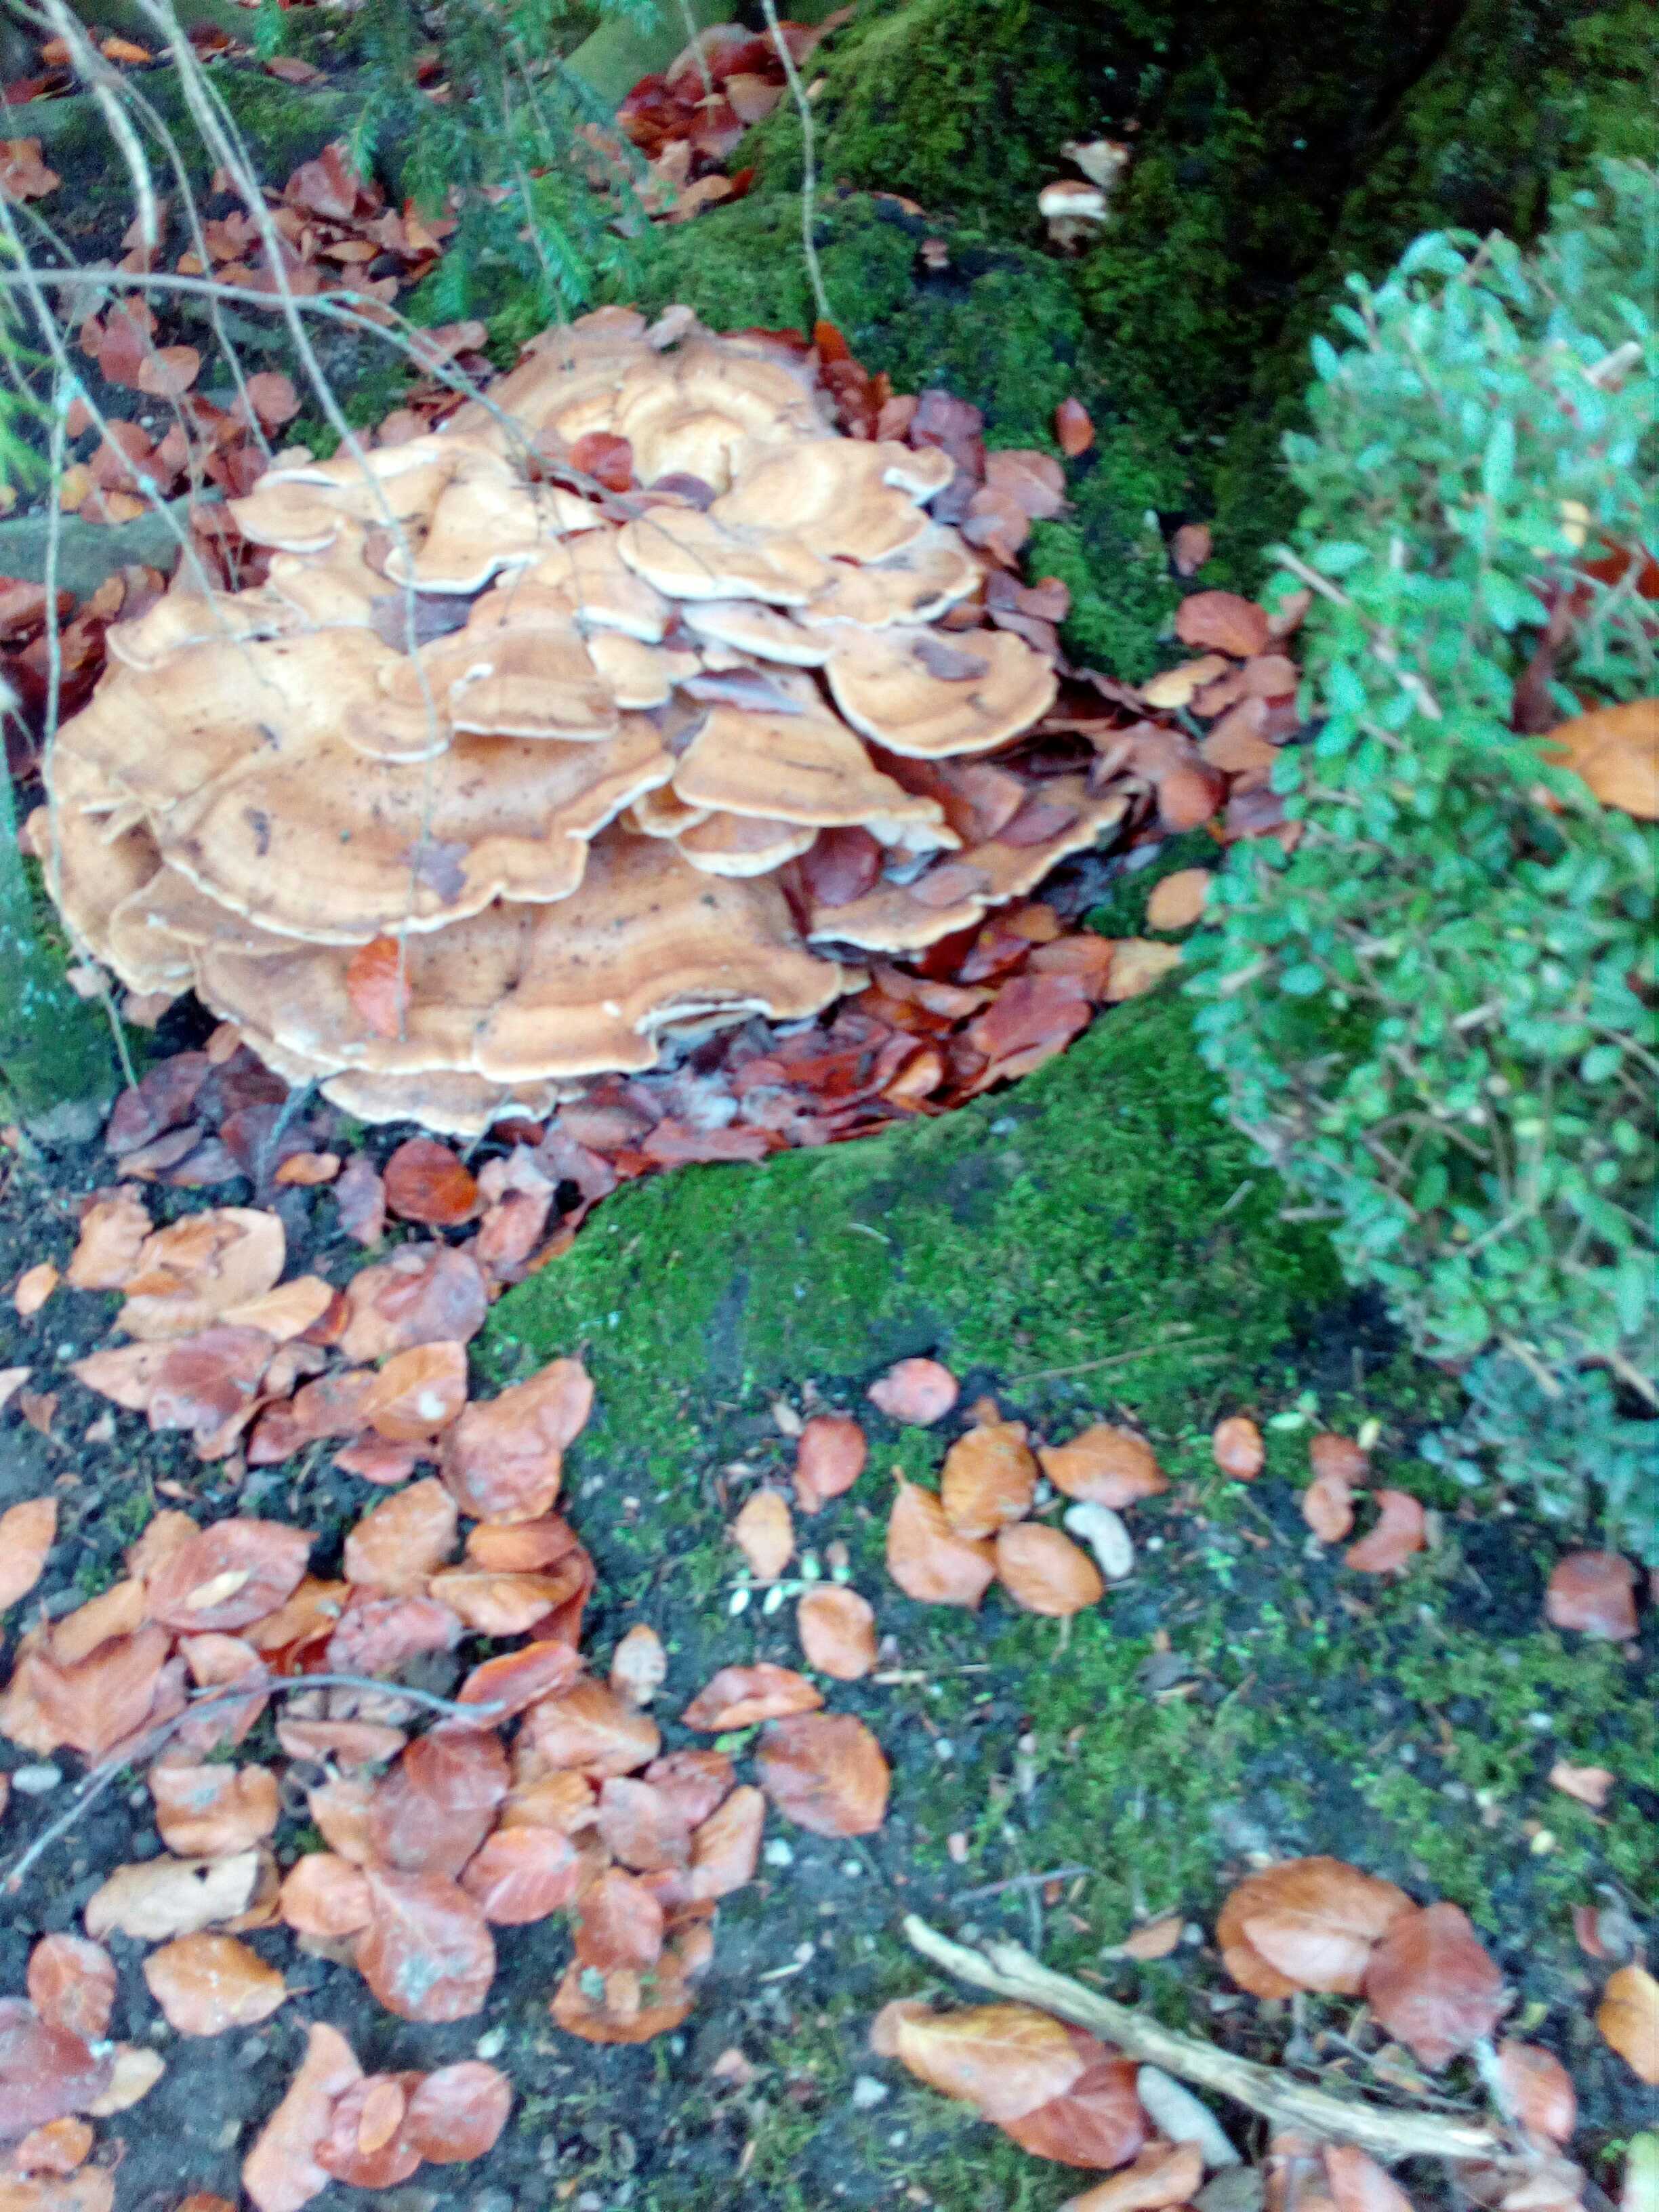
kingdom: Fungi
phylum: Basidiomycota
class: Agaricomycetes
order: Polyporales
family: Meripilaceae
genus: Meripilus
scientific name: Meripilus giganteus
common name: kæmpeporesvamp
